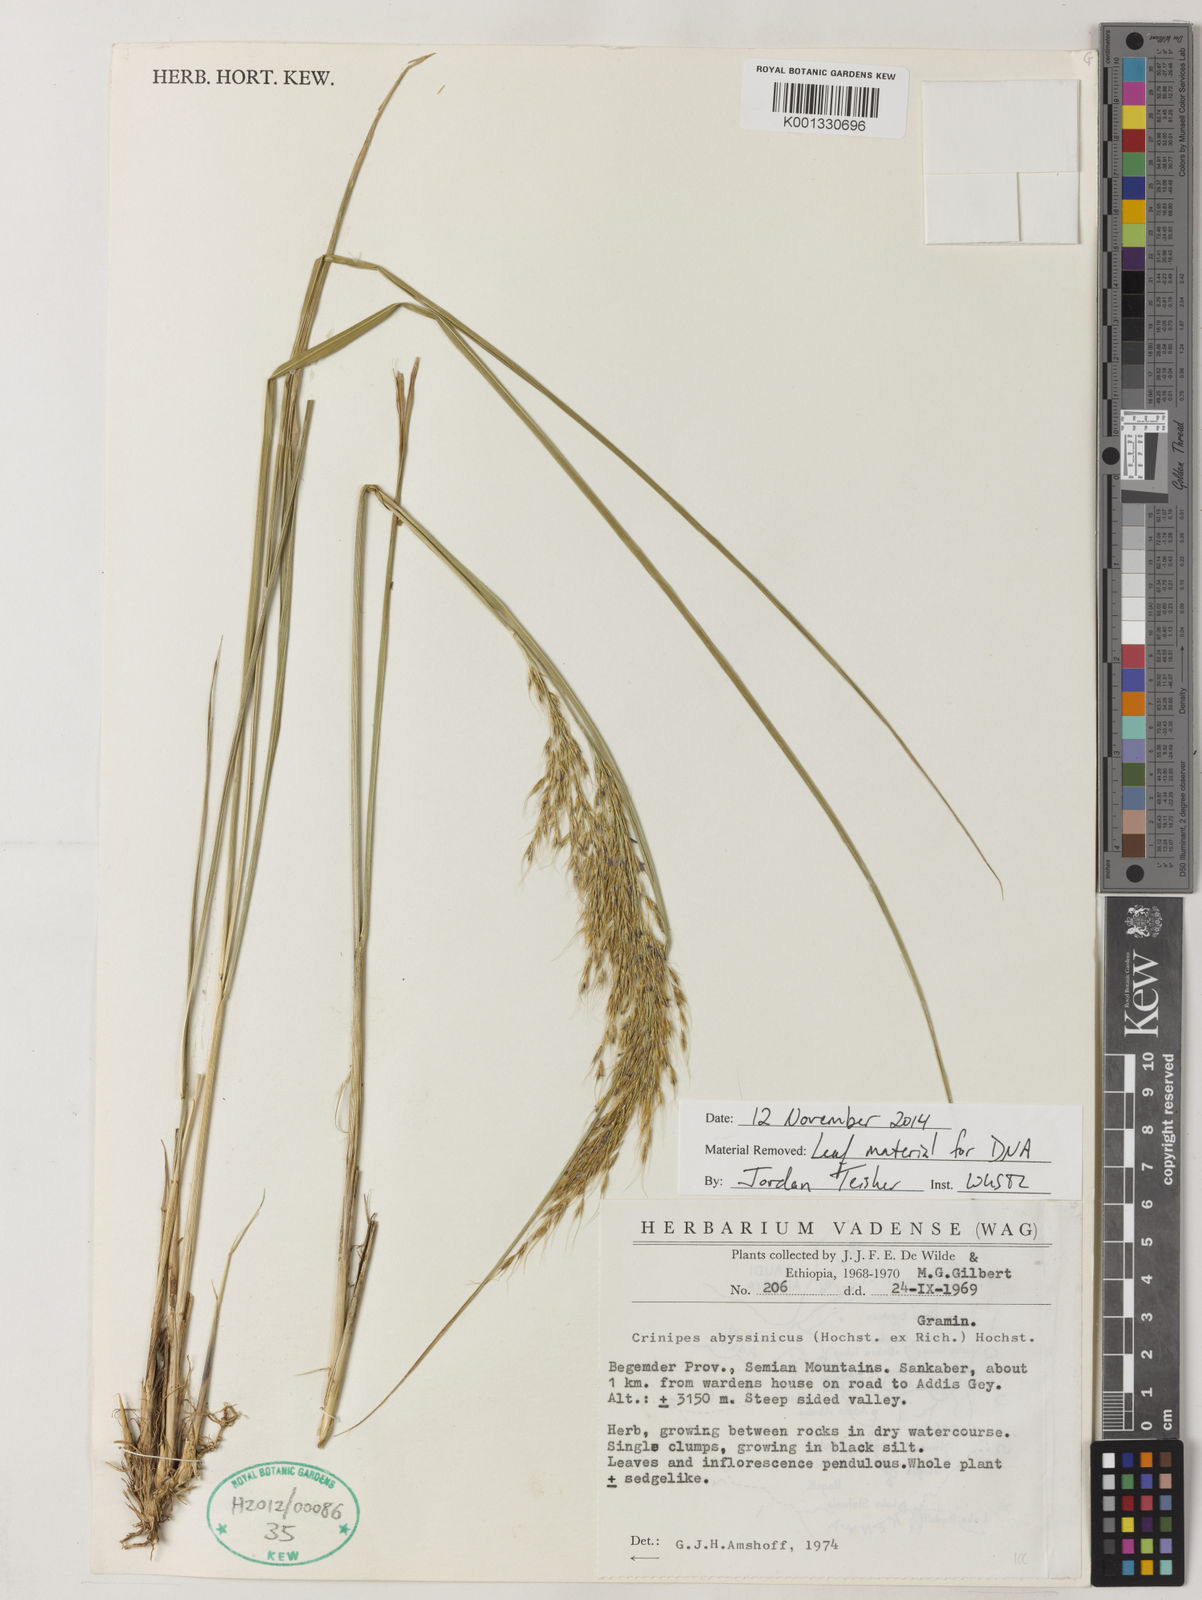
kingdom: Plantae
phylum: Tracheophyta
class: Liliopsida
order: Poales
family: Poaceae
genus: Crinipes
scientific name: Crinipes abyssinicus
